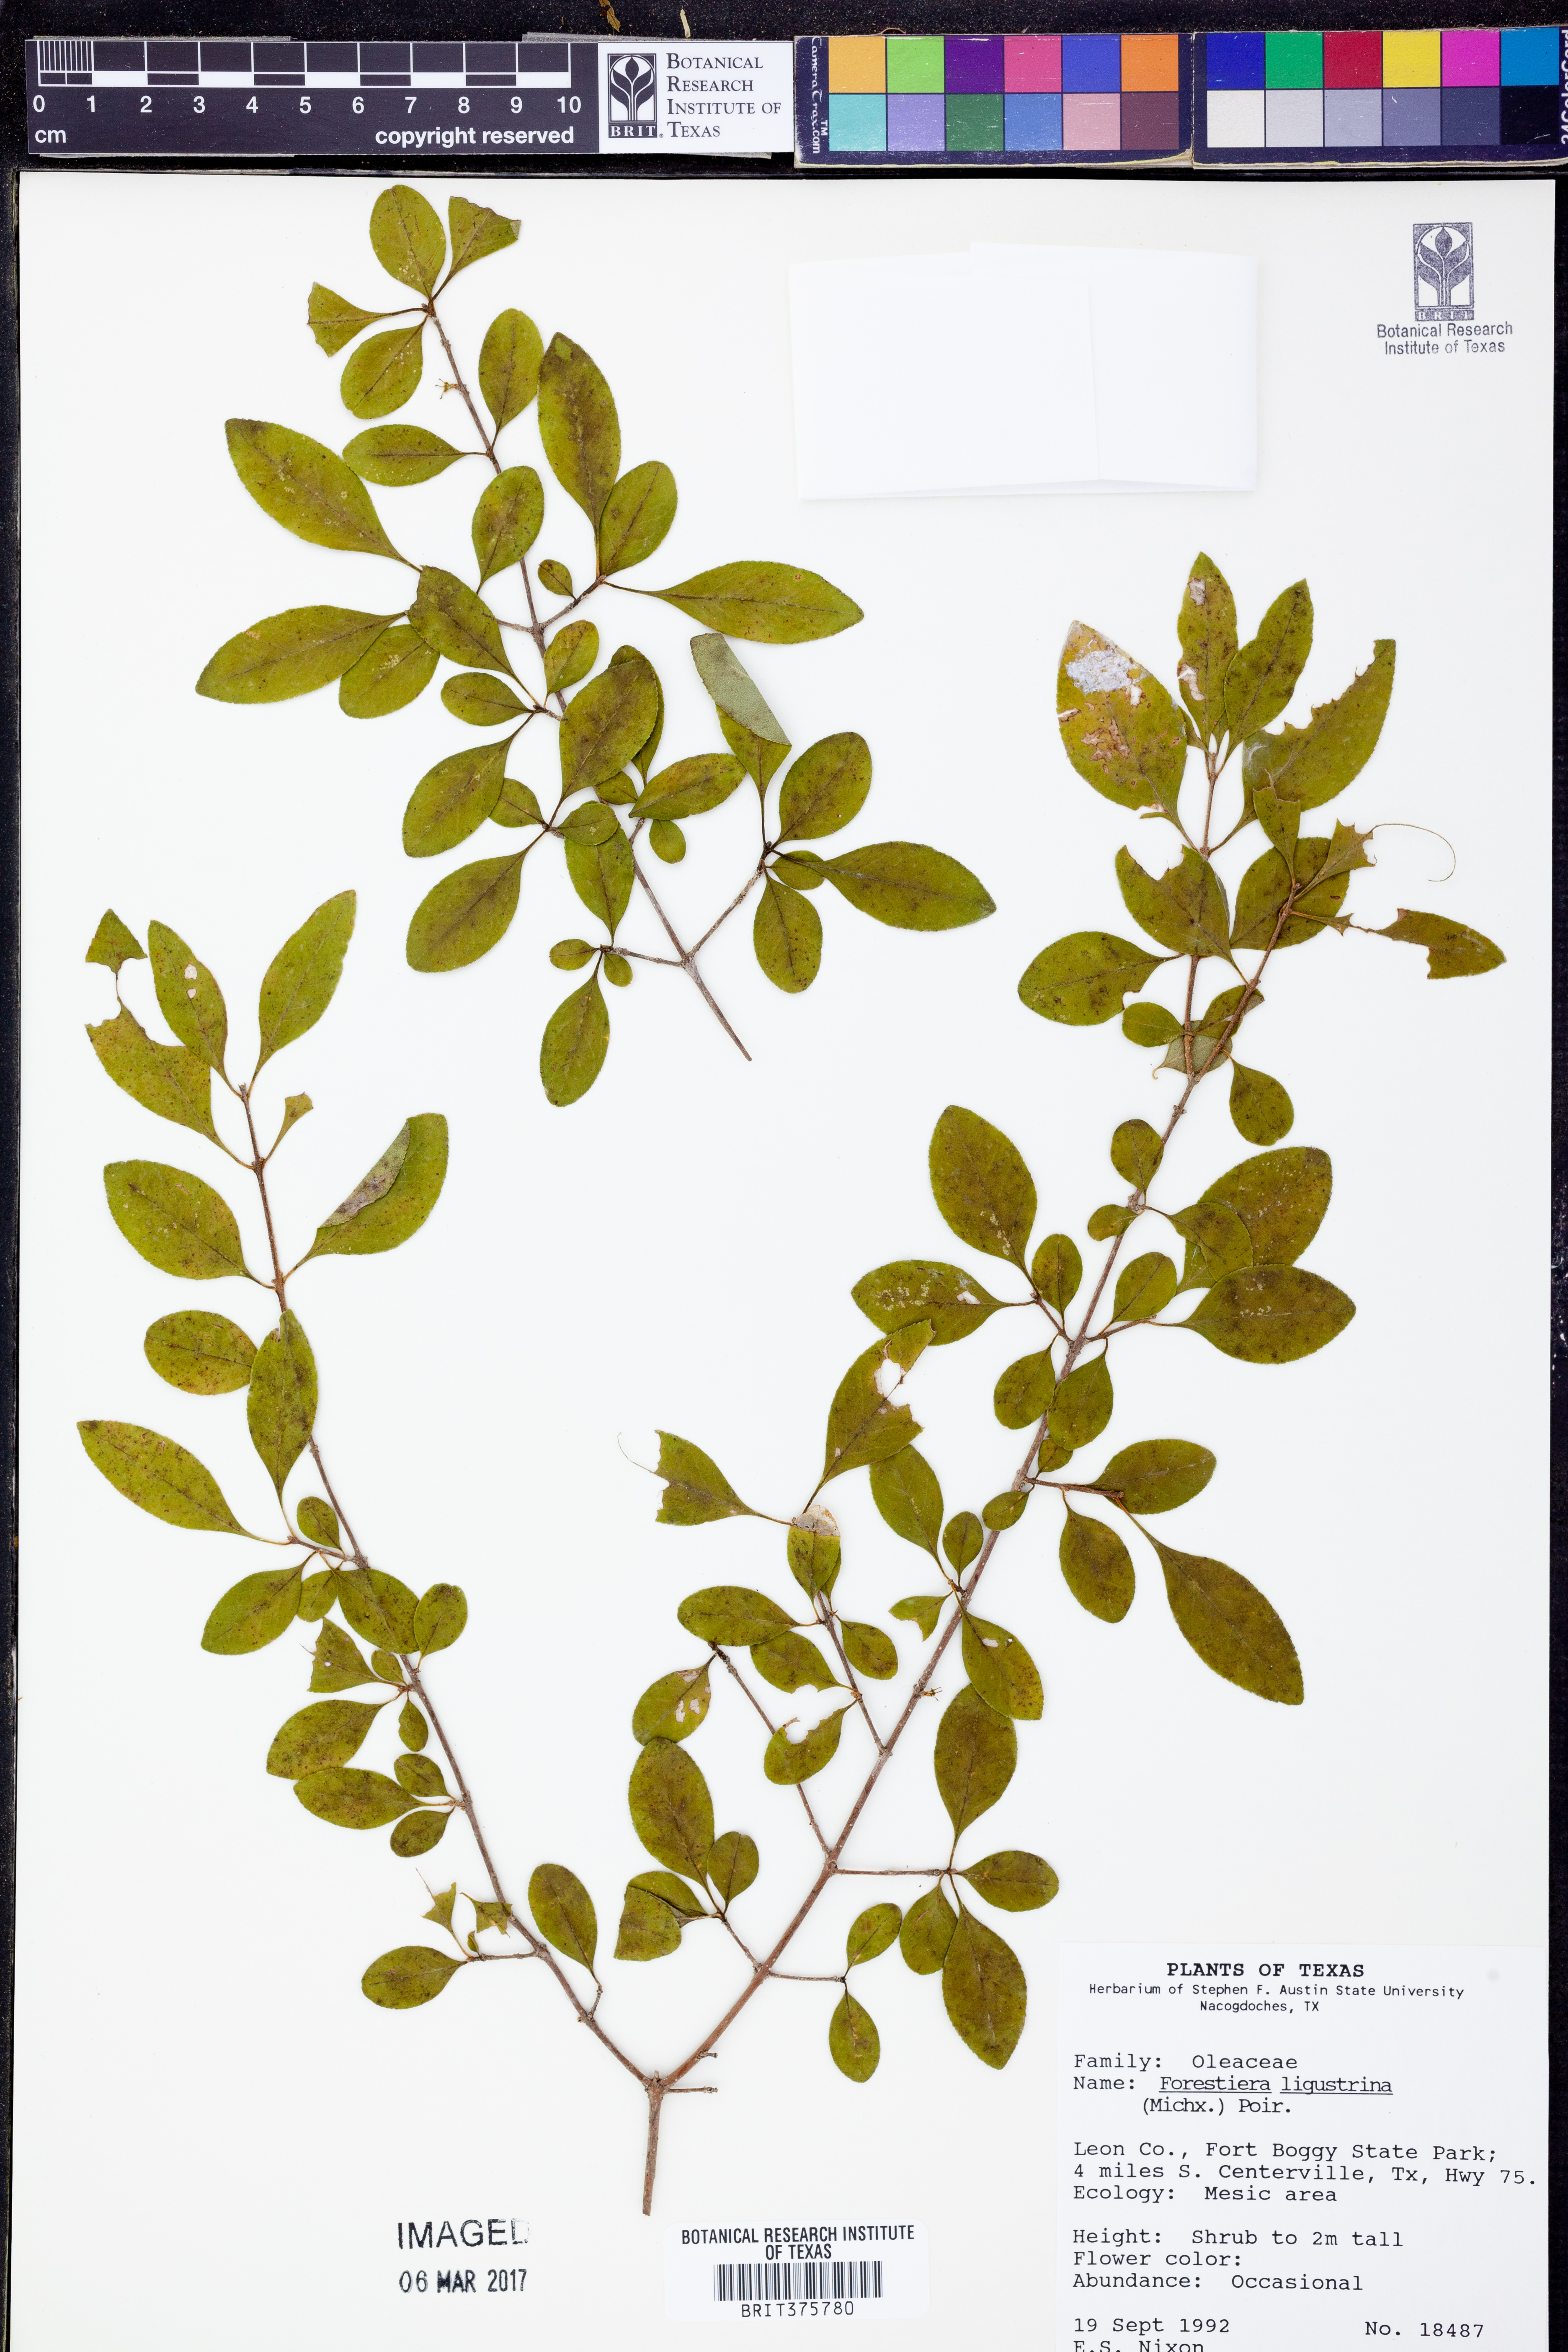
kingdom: Plantae
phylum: Tracheophyta
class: Magnoliopsida
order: Lamiales
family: Oleaceae
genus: Forestiera
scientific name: Forestiera ligustrina
